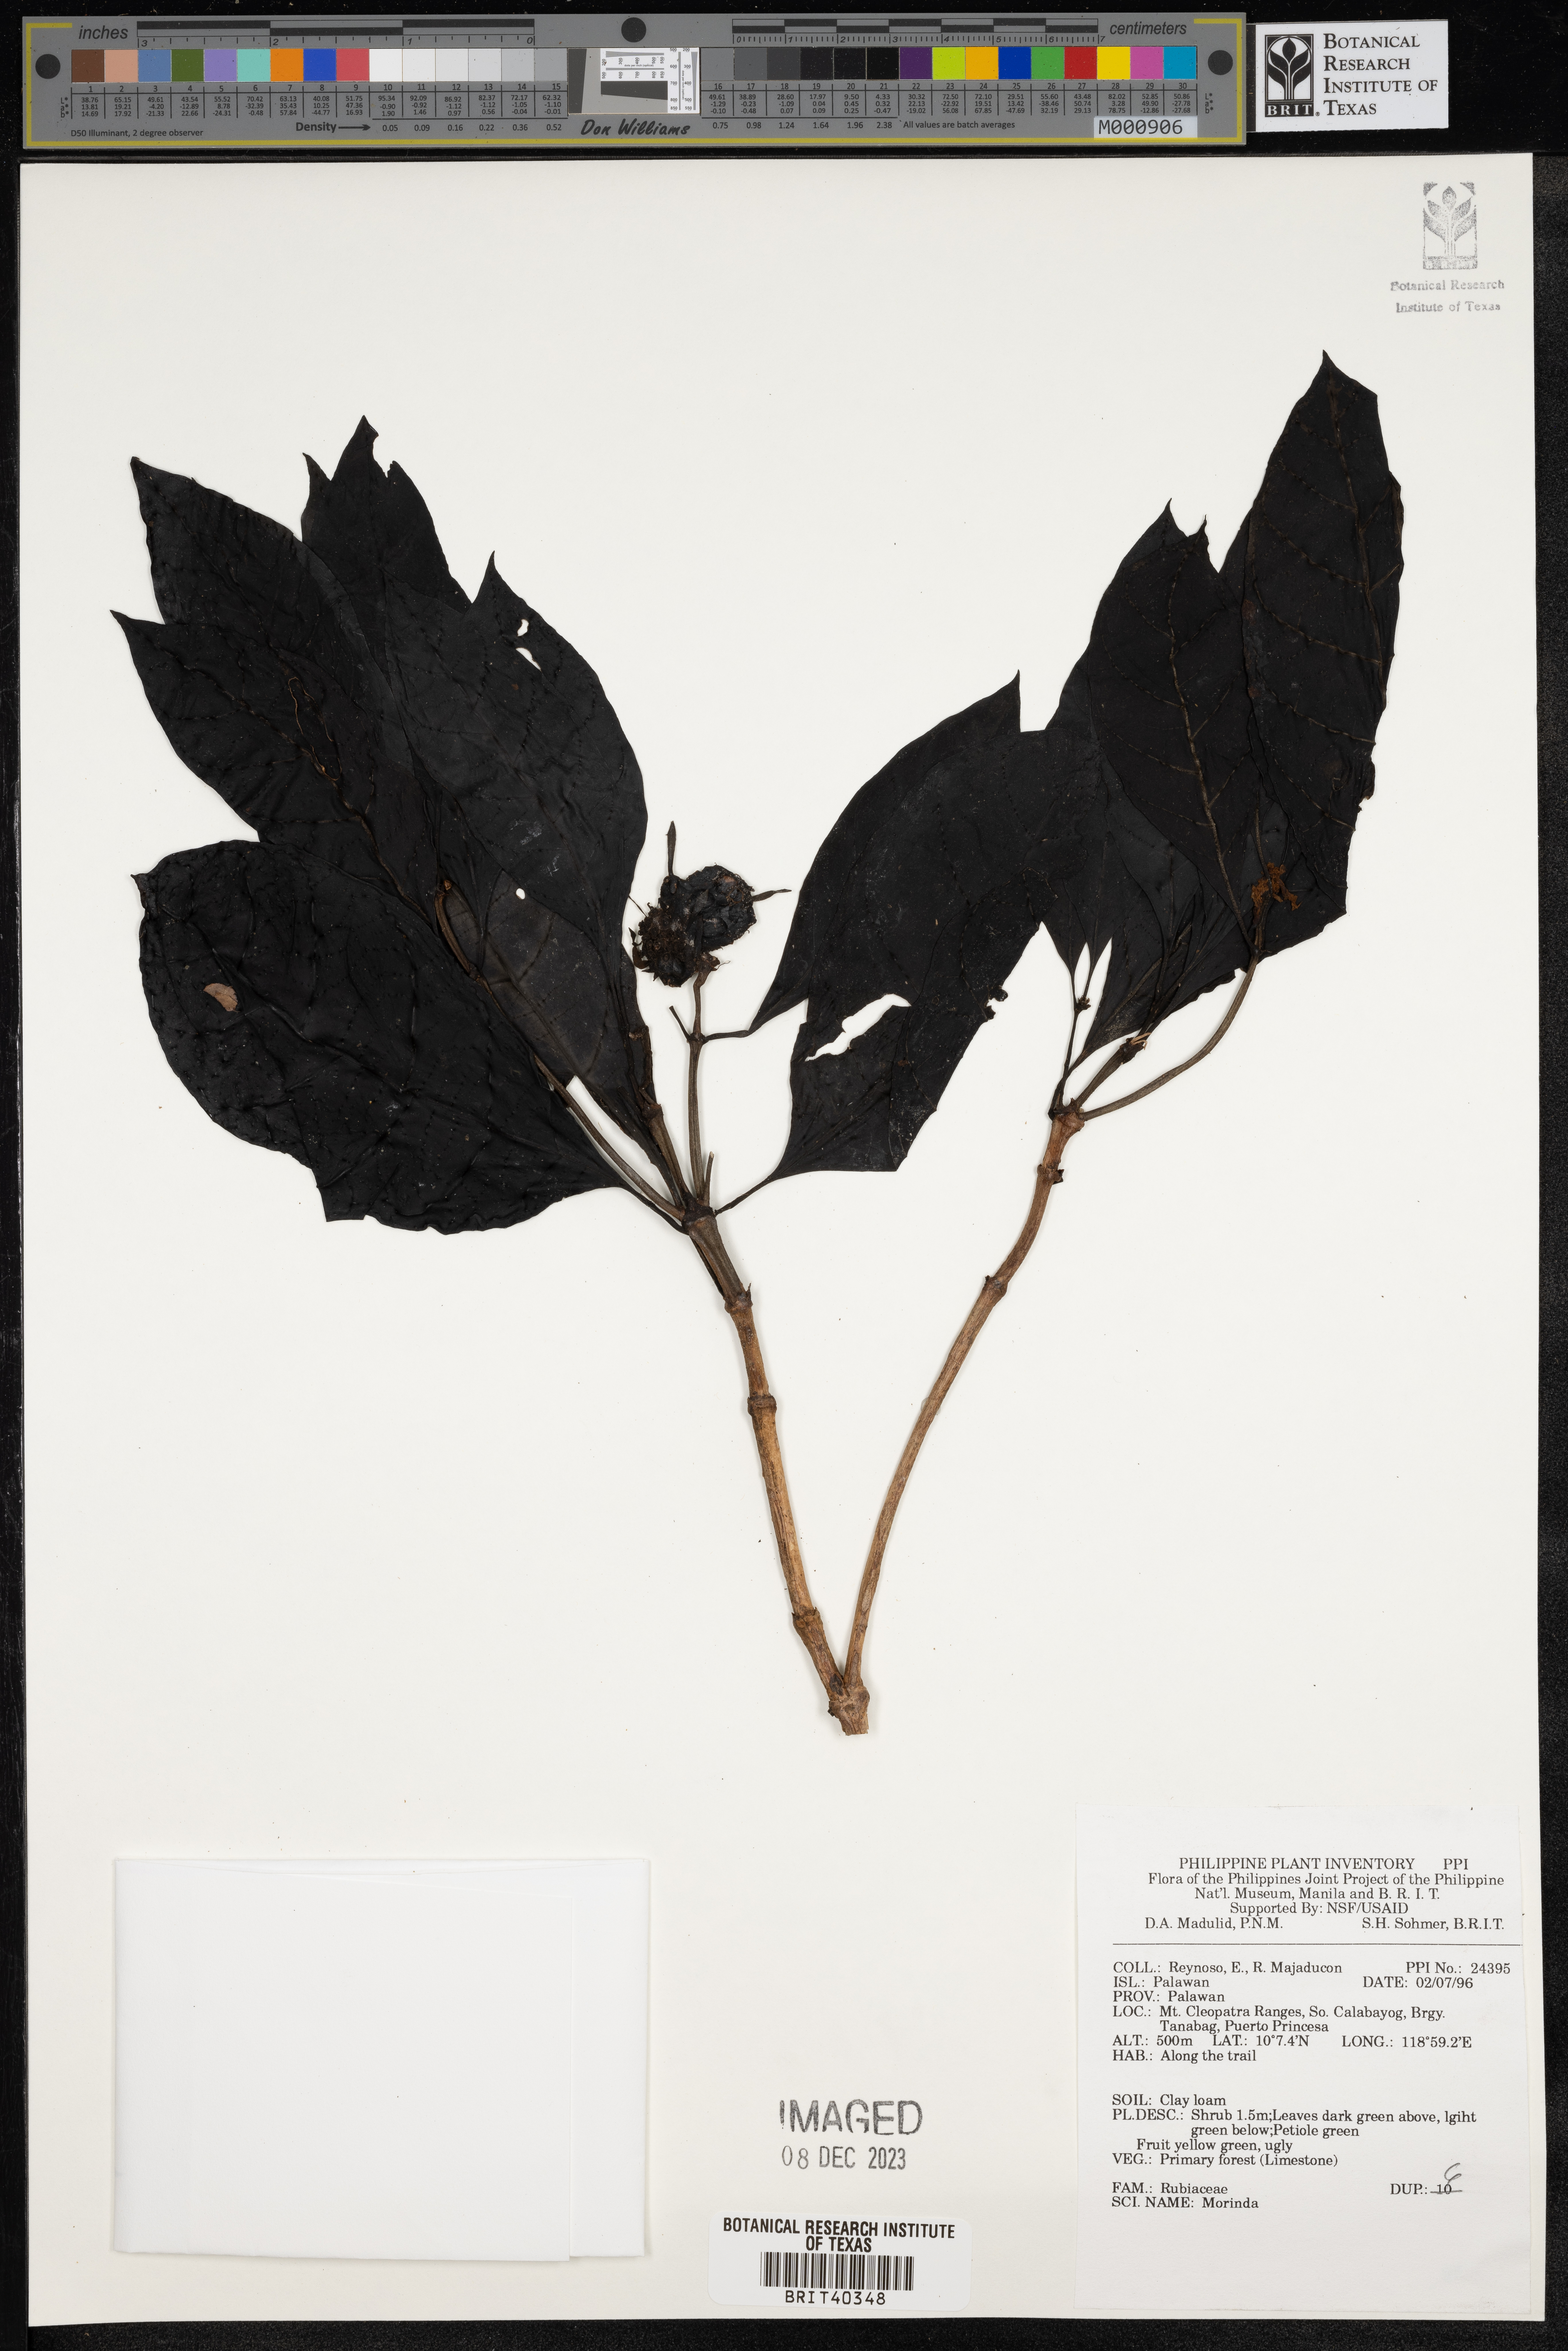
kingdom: Plantae
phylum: Tracheophyta
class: Magnoliopsida
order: Gentianales
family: Rubiaceae
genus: Morinda
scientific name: Morinda
